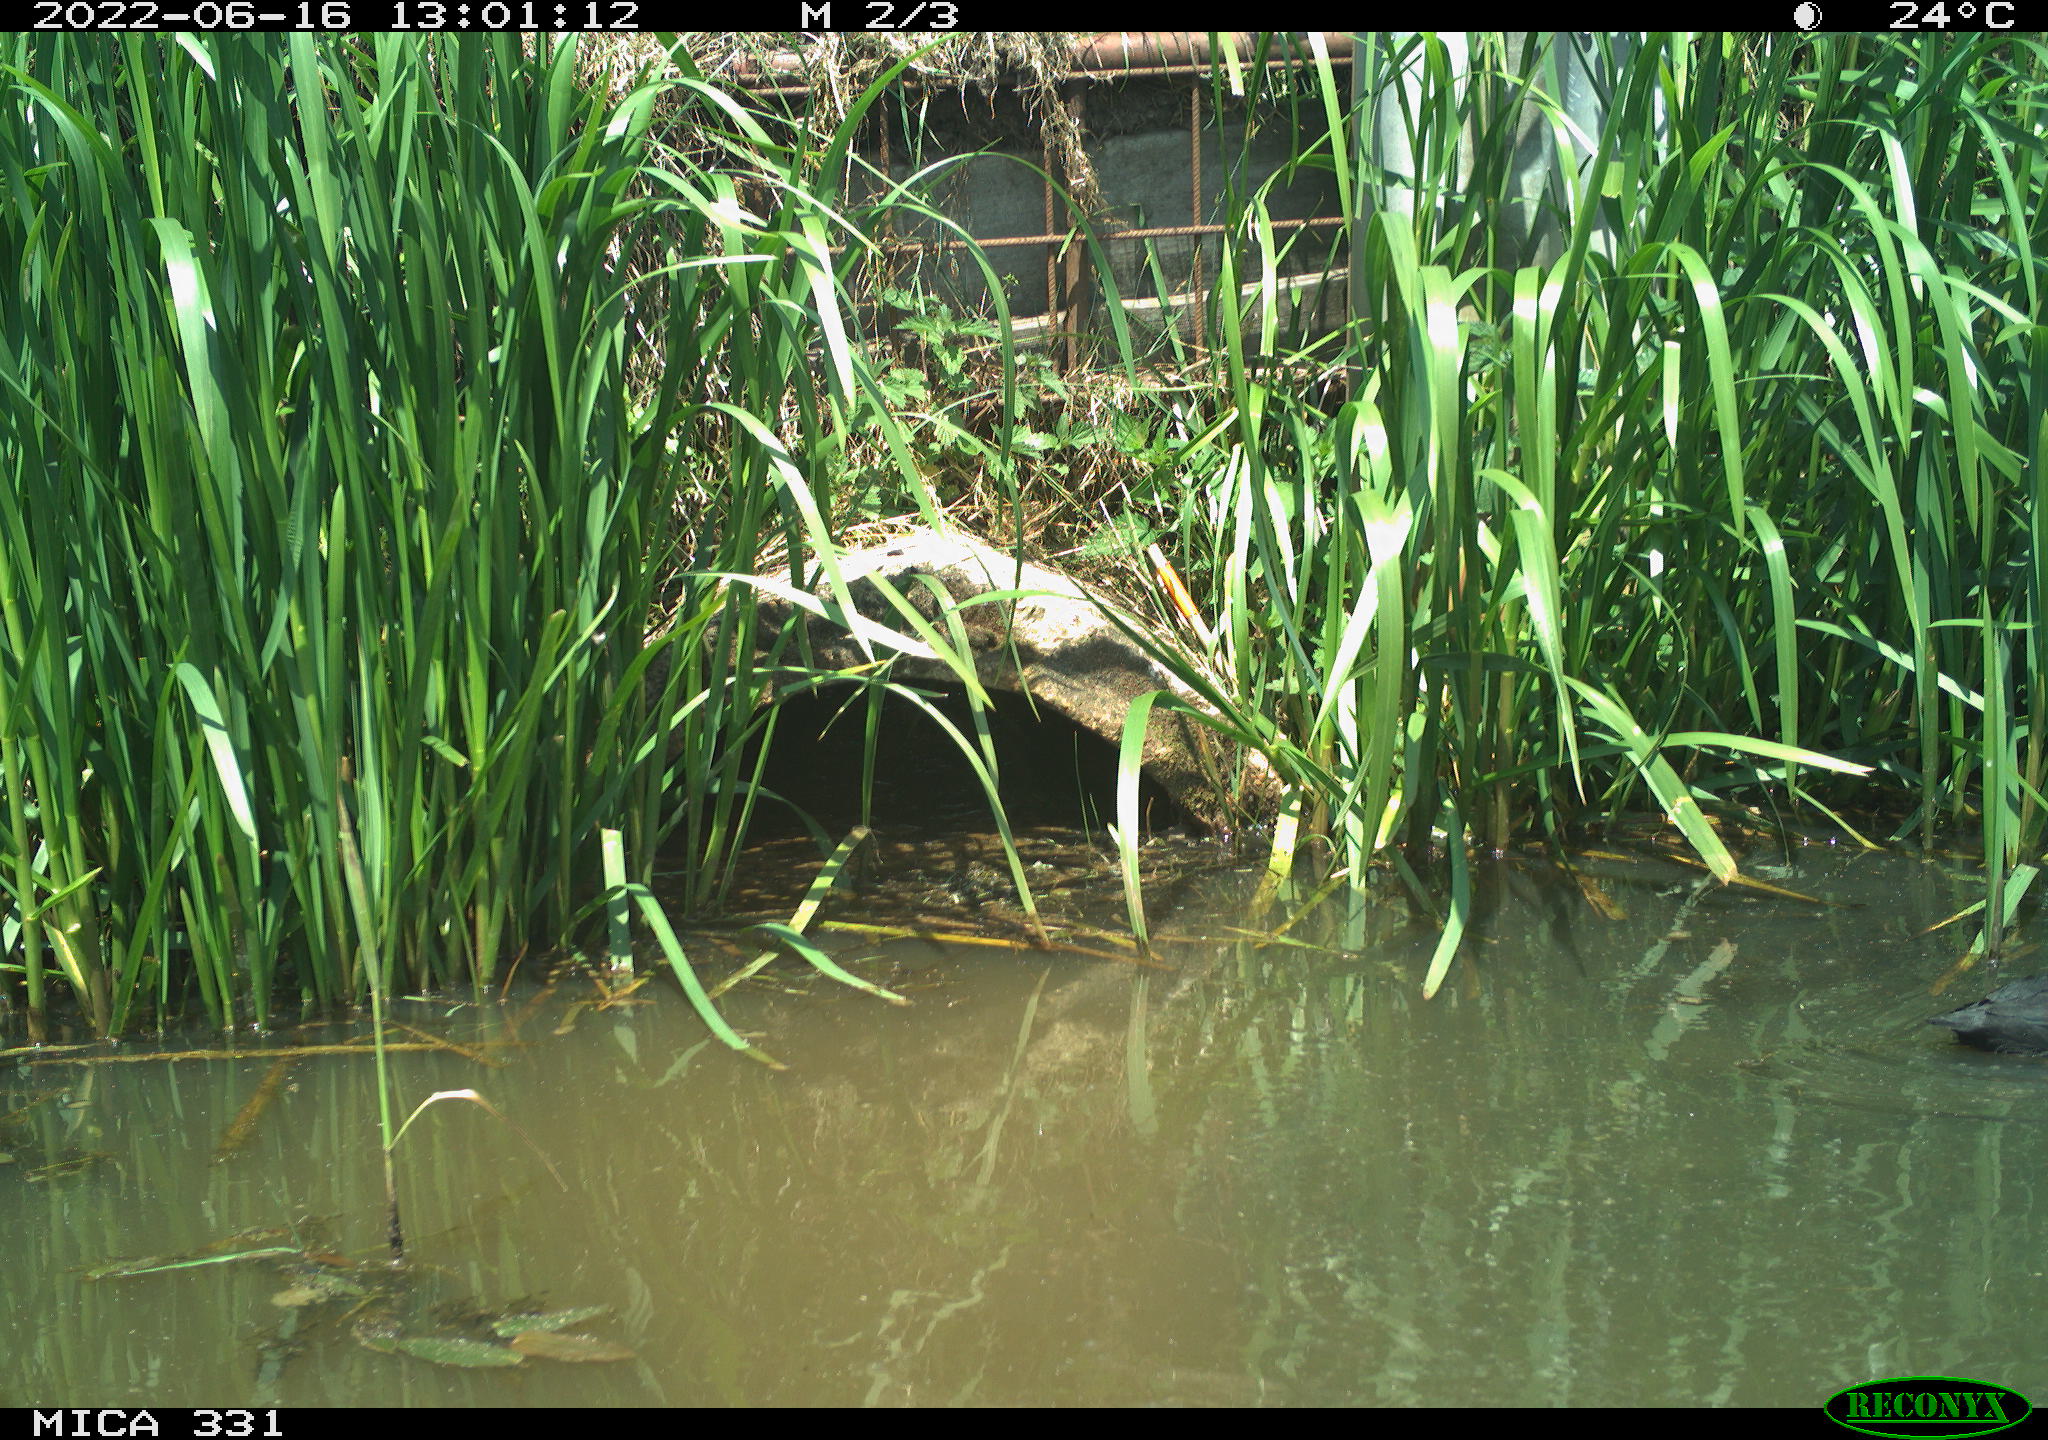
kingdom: Animalia
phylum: Chordata
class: Aves
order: Gruiformes
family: Rallidae
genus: Fulica
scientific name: Fulica atra
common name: Eurasian coot
